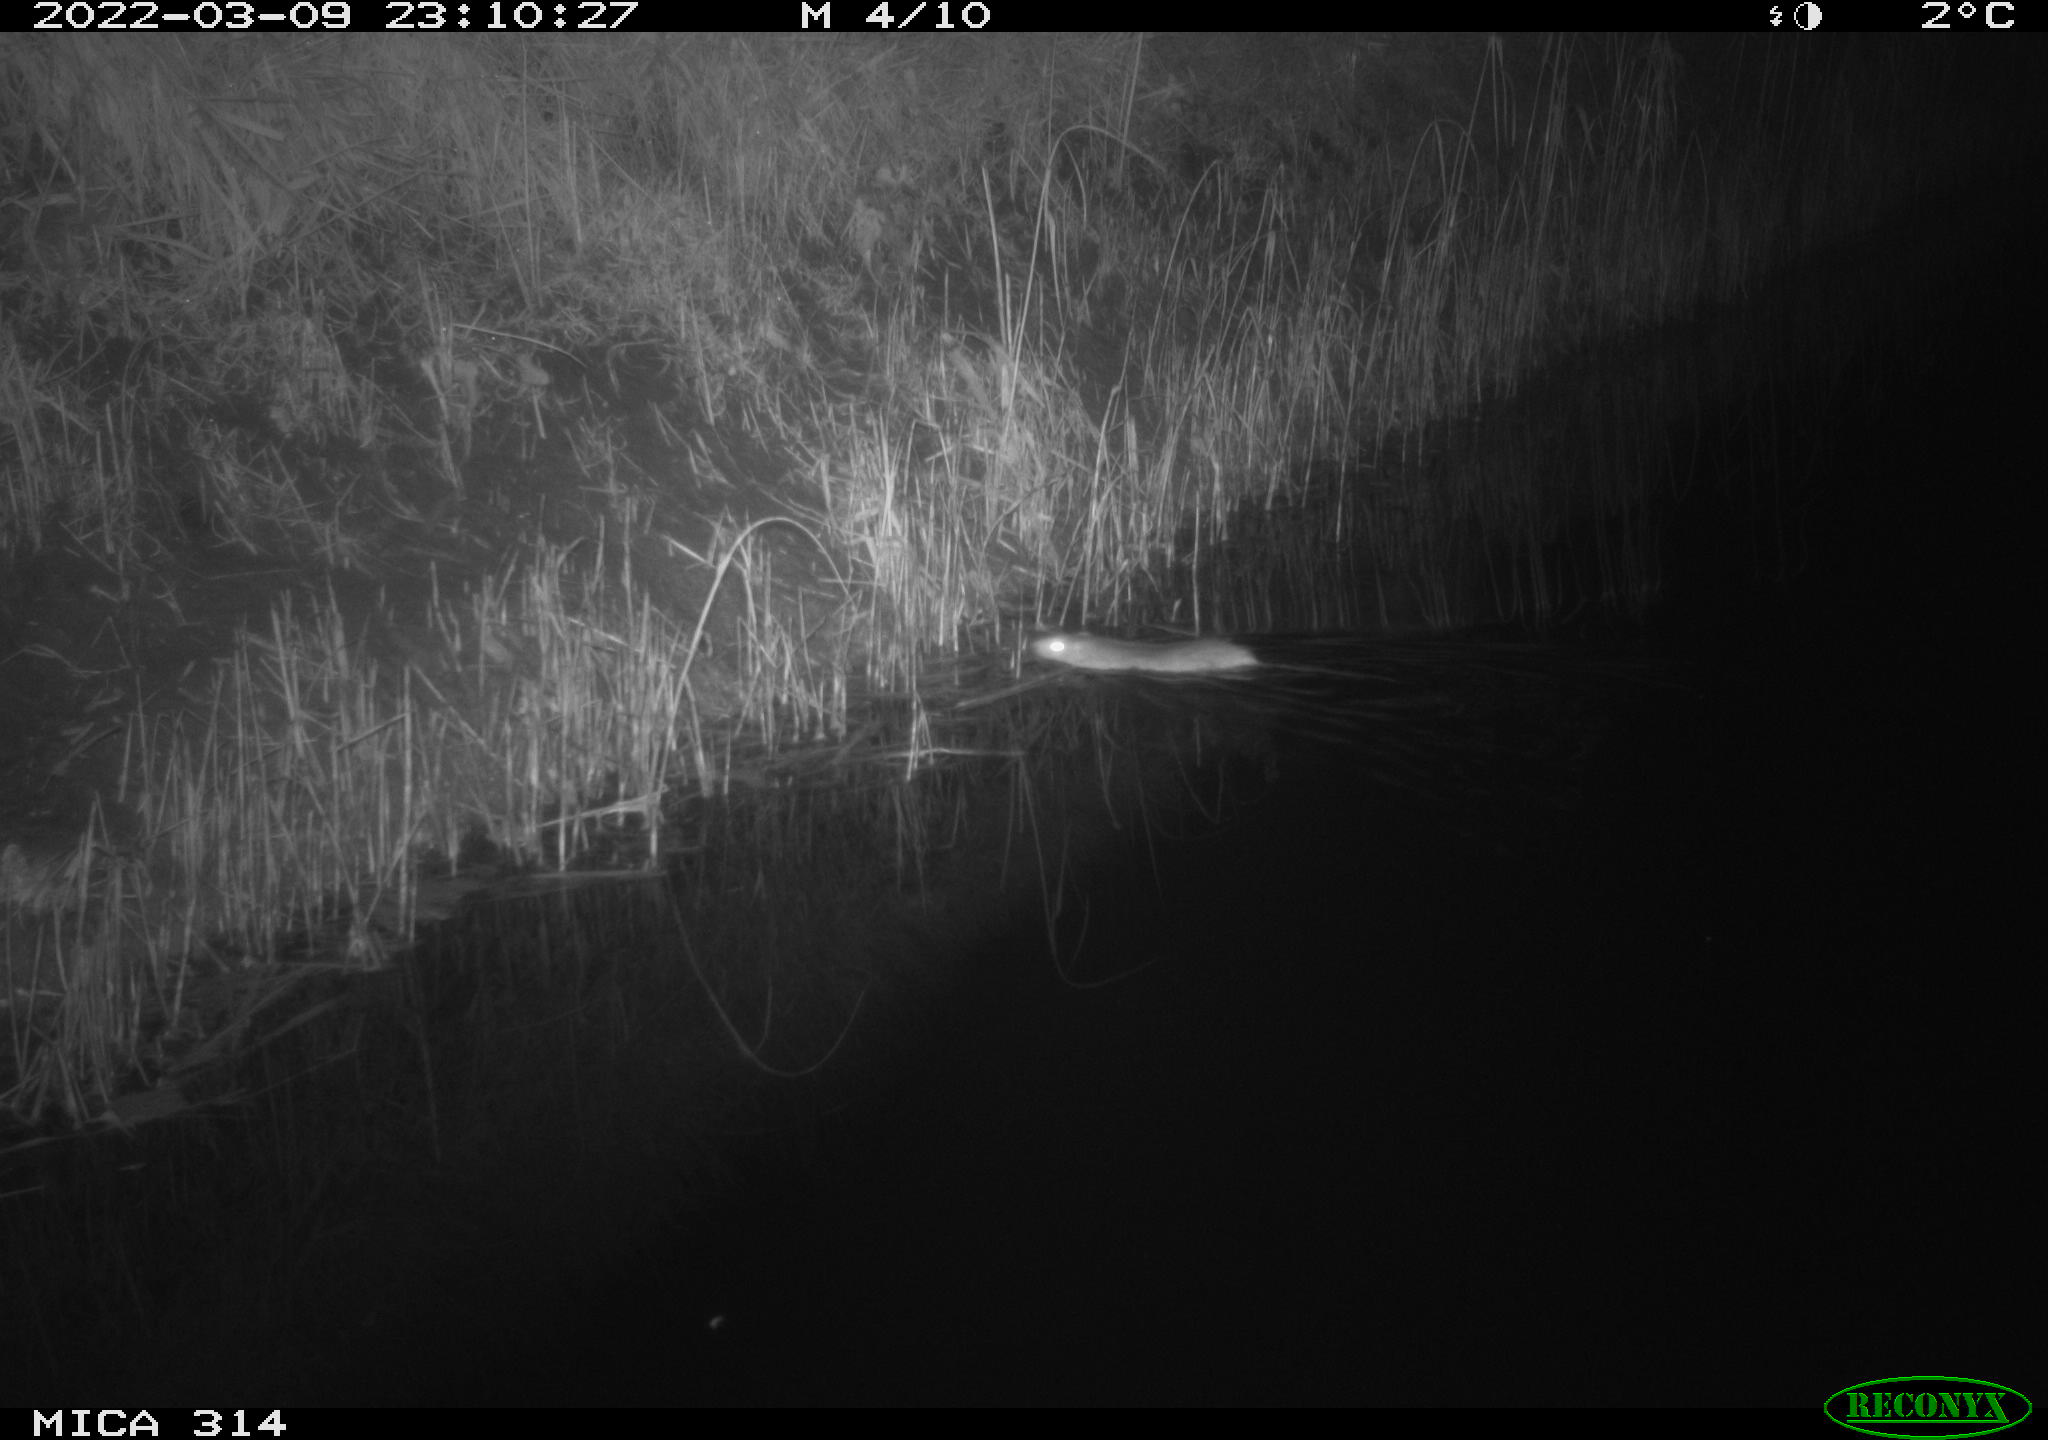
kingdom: Animalia
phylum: Chordata
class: Mammalia
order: Rodentia
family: Muridae
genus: Rattus
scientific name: Rattus norvegicus
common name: Brown rat
